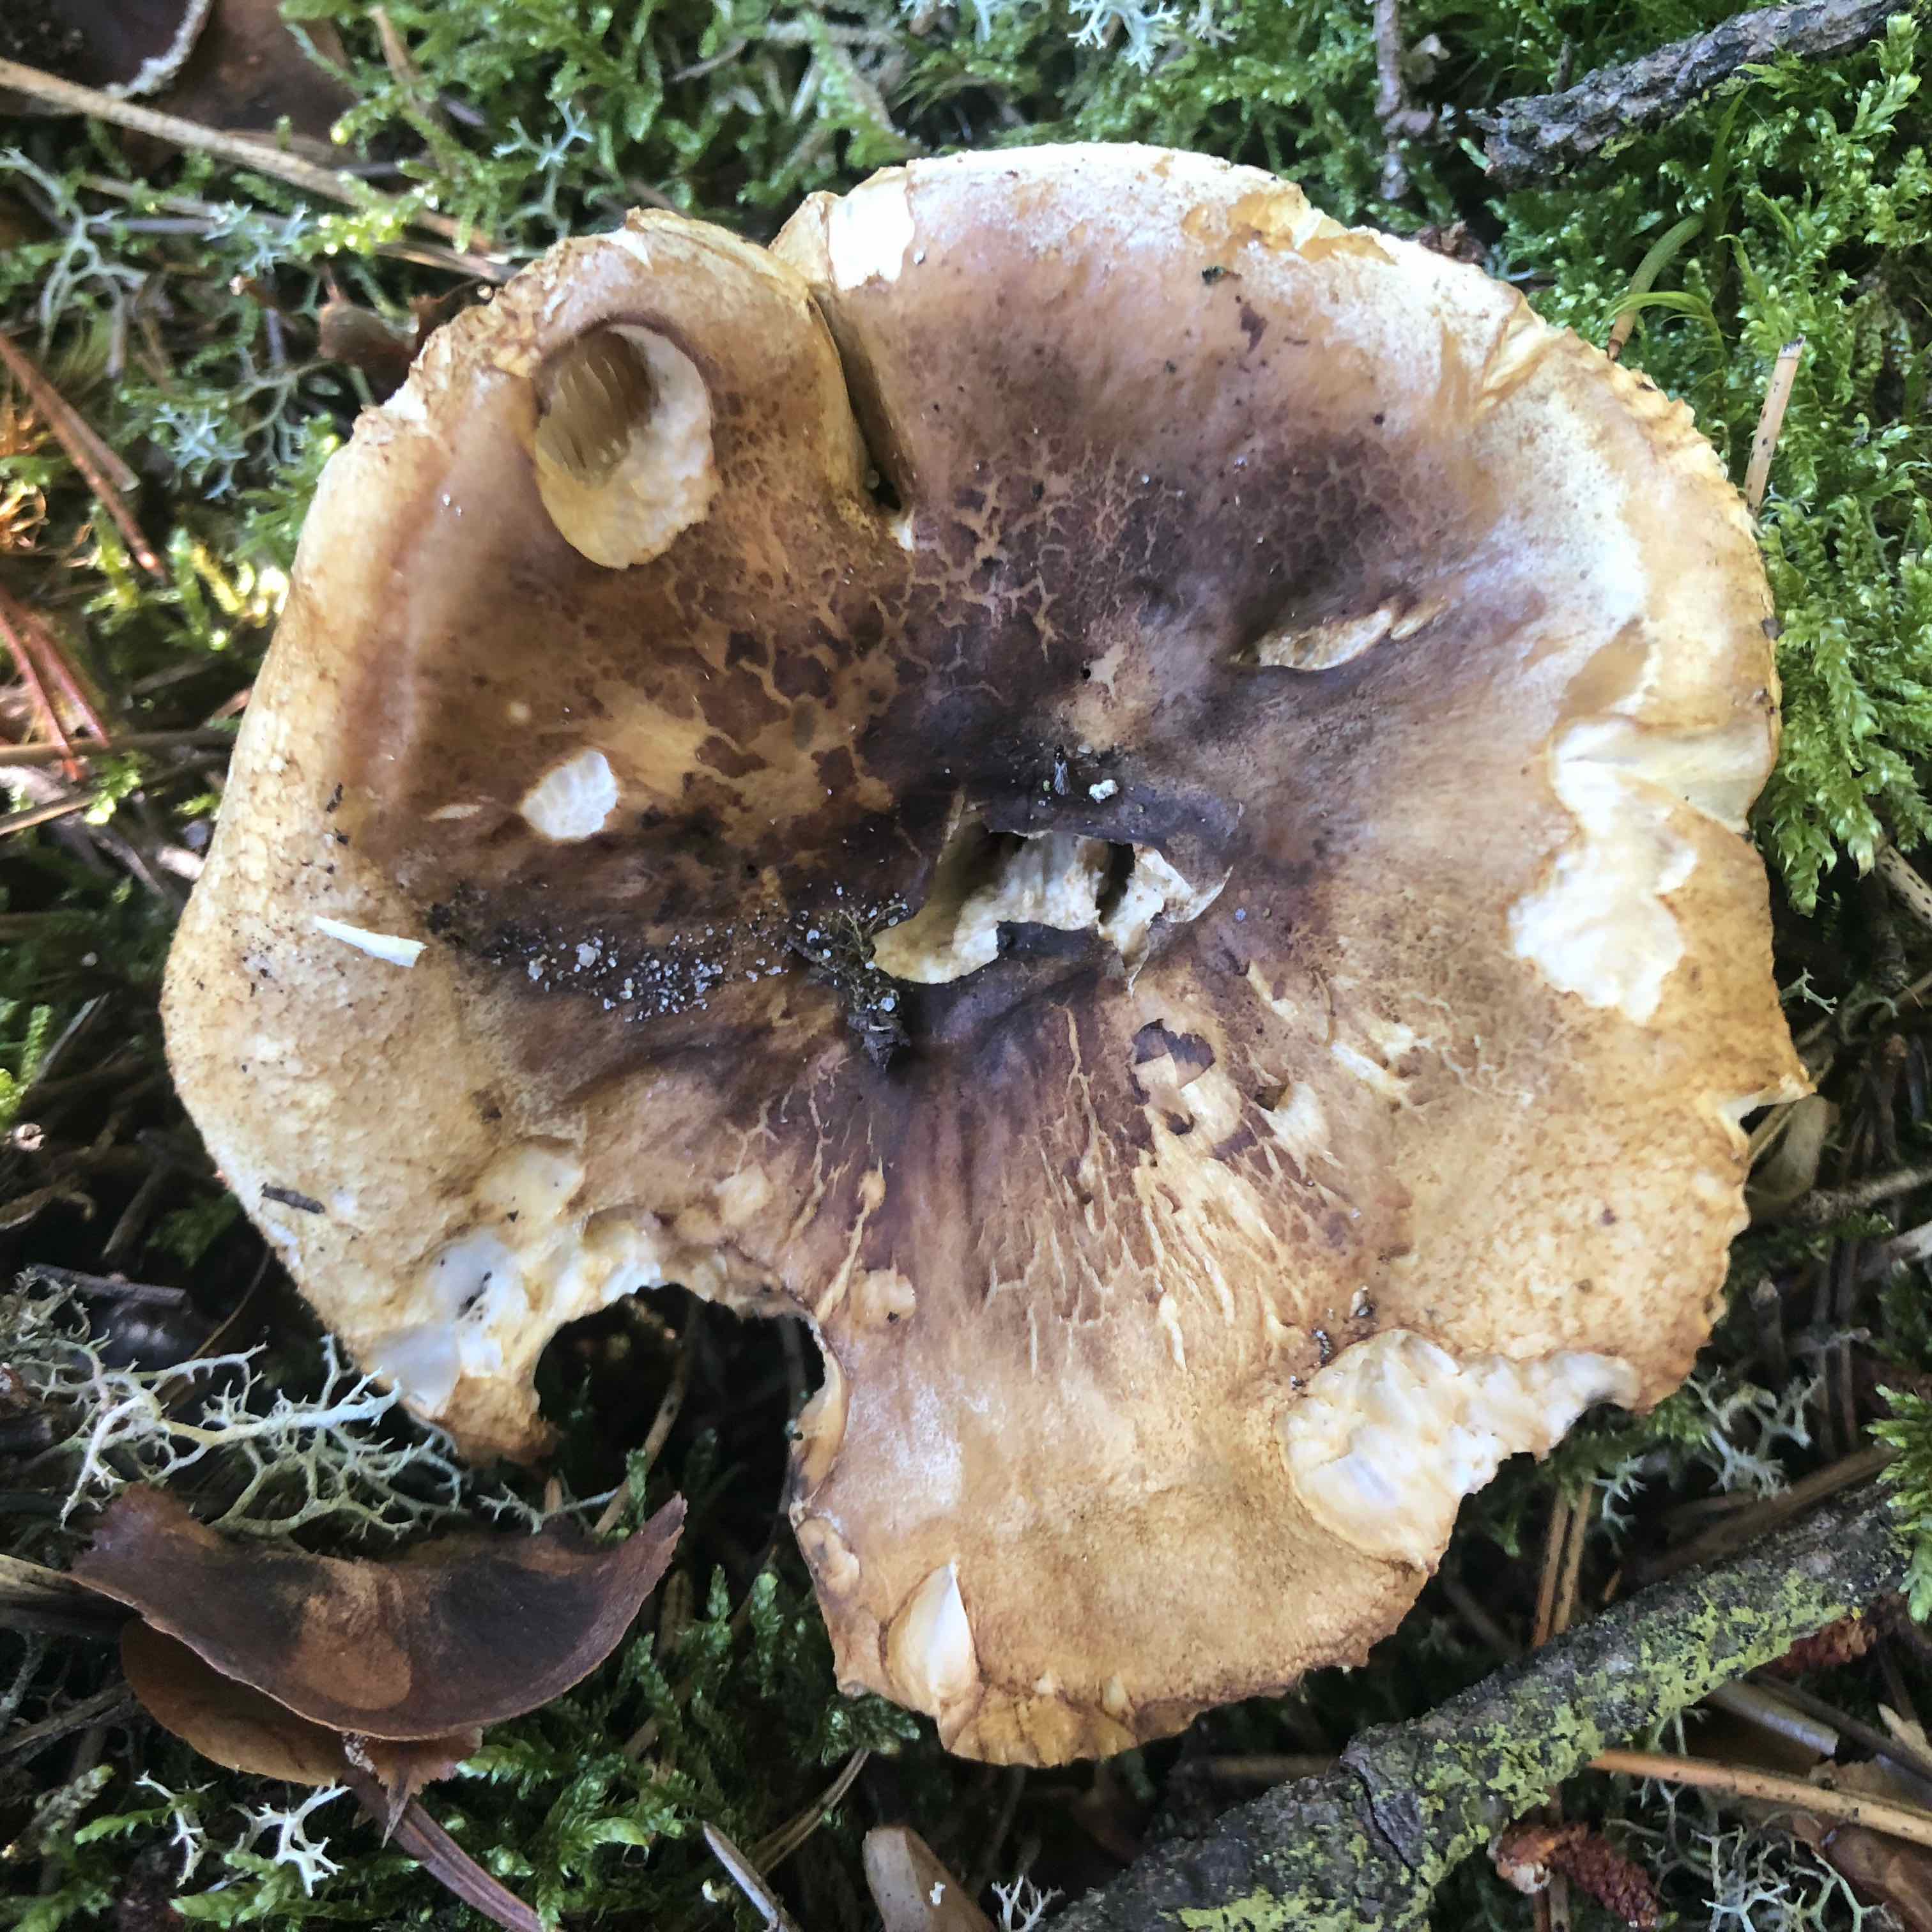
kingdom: Fungi
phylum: Basidiomycota
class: Agaricomycetes
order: Agaricales
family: Tricholomataceae
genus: Tricholoma
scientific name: Tricholoma apium
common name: suppe-ridderhat
